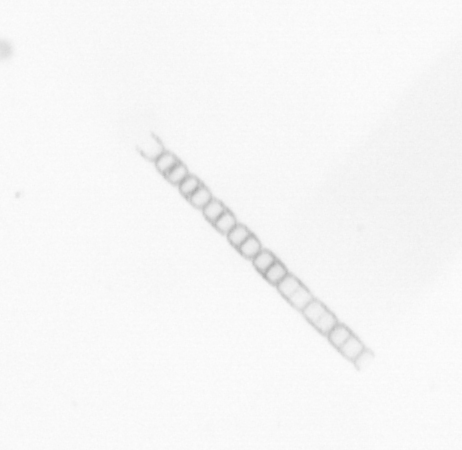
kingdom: Chromista
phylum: Ochrophyta
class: Bacillariophyceae
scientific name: Bacillariophyceae
